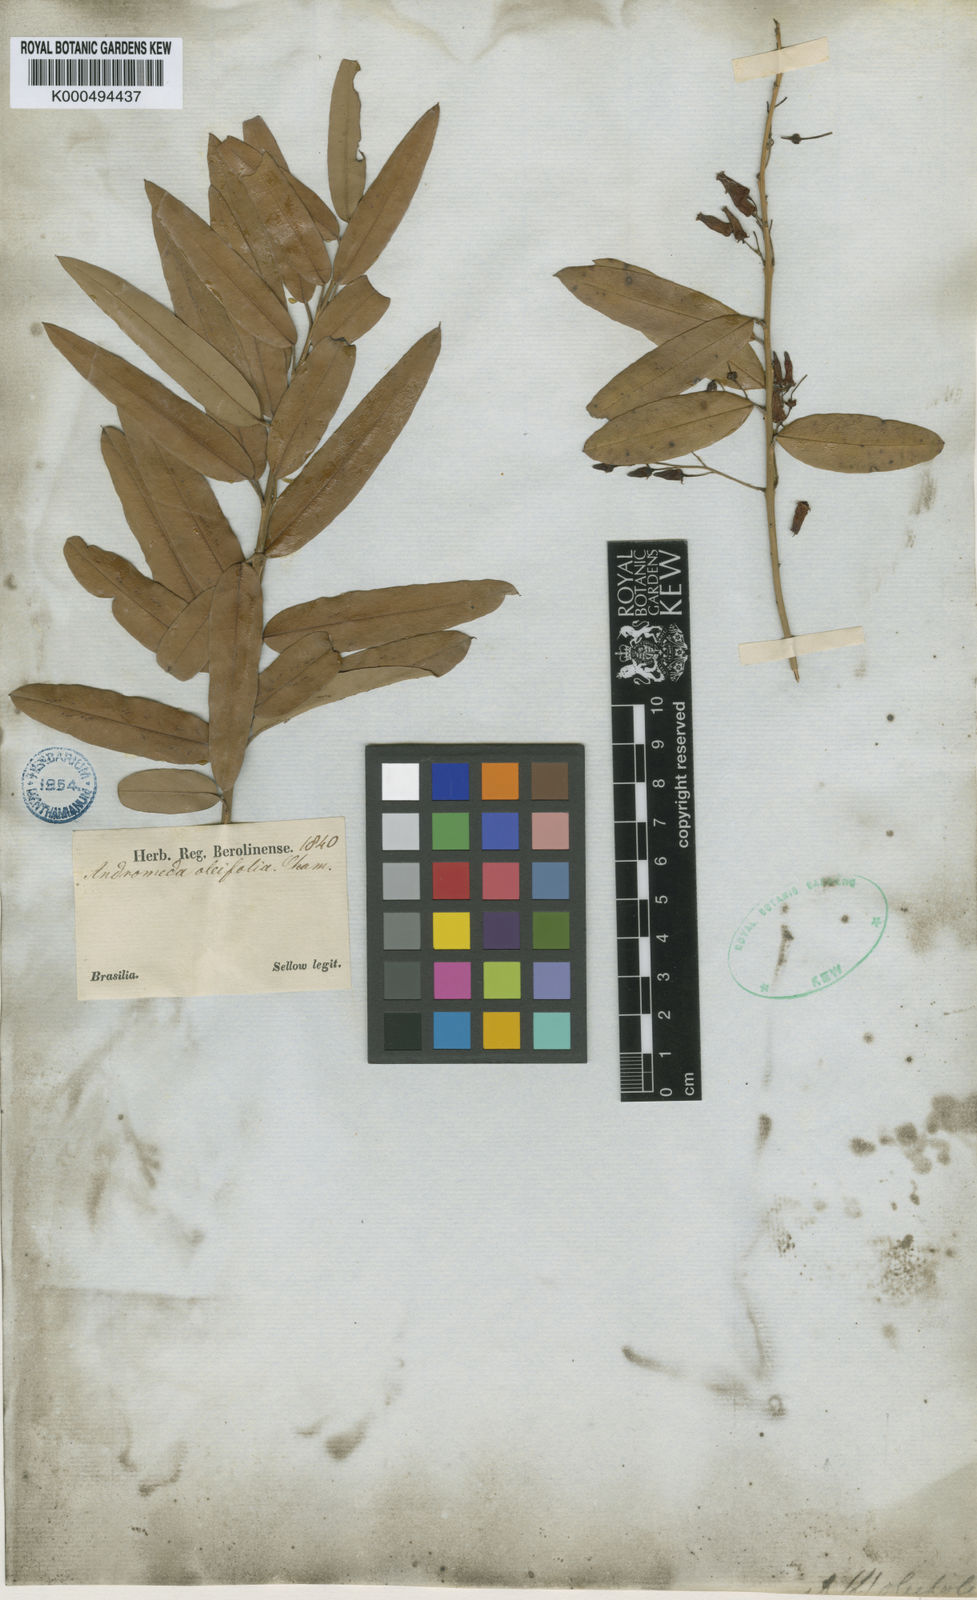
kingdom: Plantae
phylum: Tracheophyta
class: Magnoliopsida
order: Ericales
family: Ericaceae
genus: Agarista
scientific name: Agarista oleifolia
